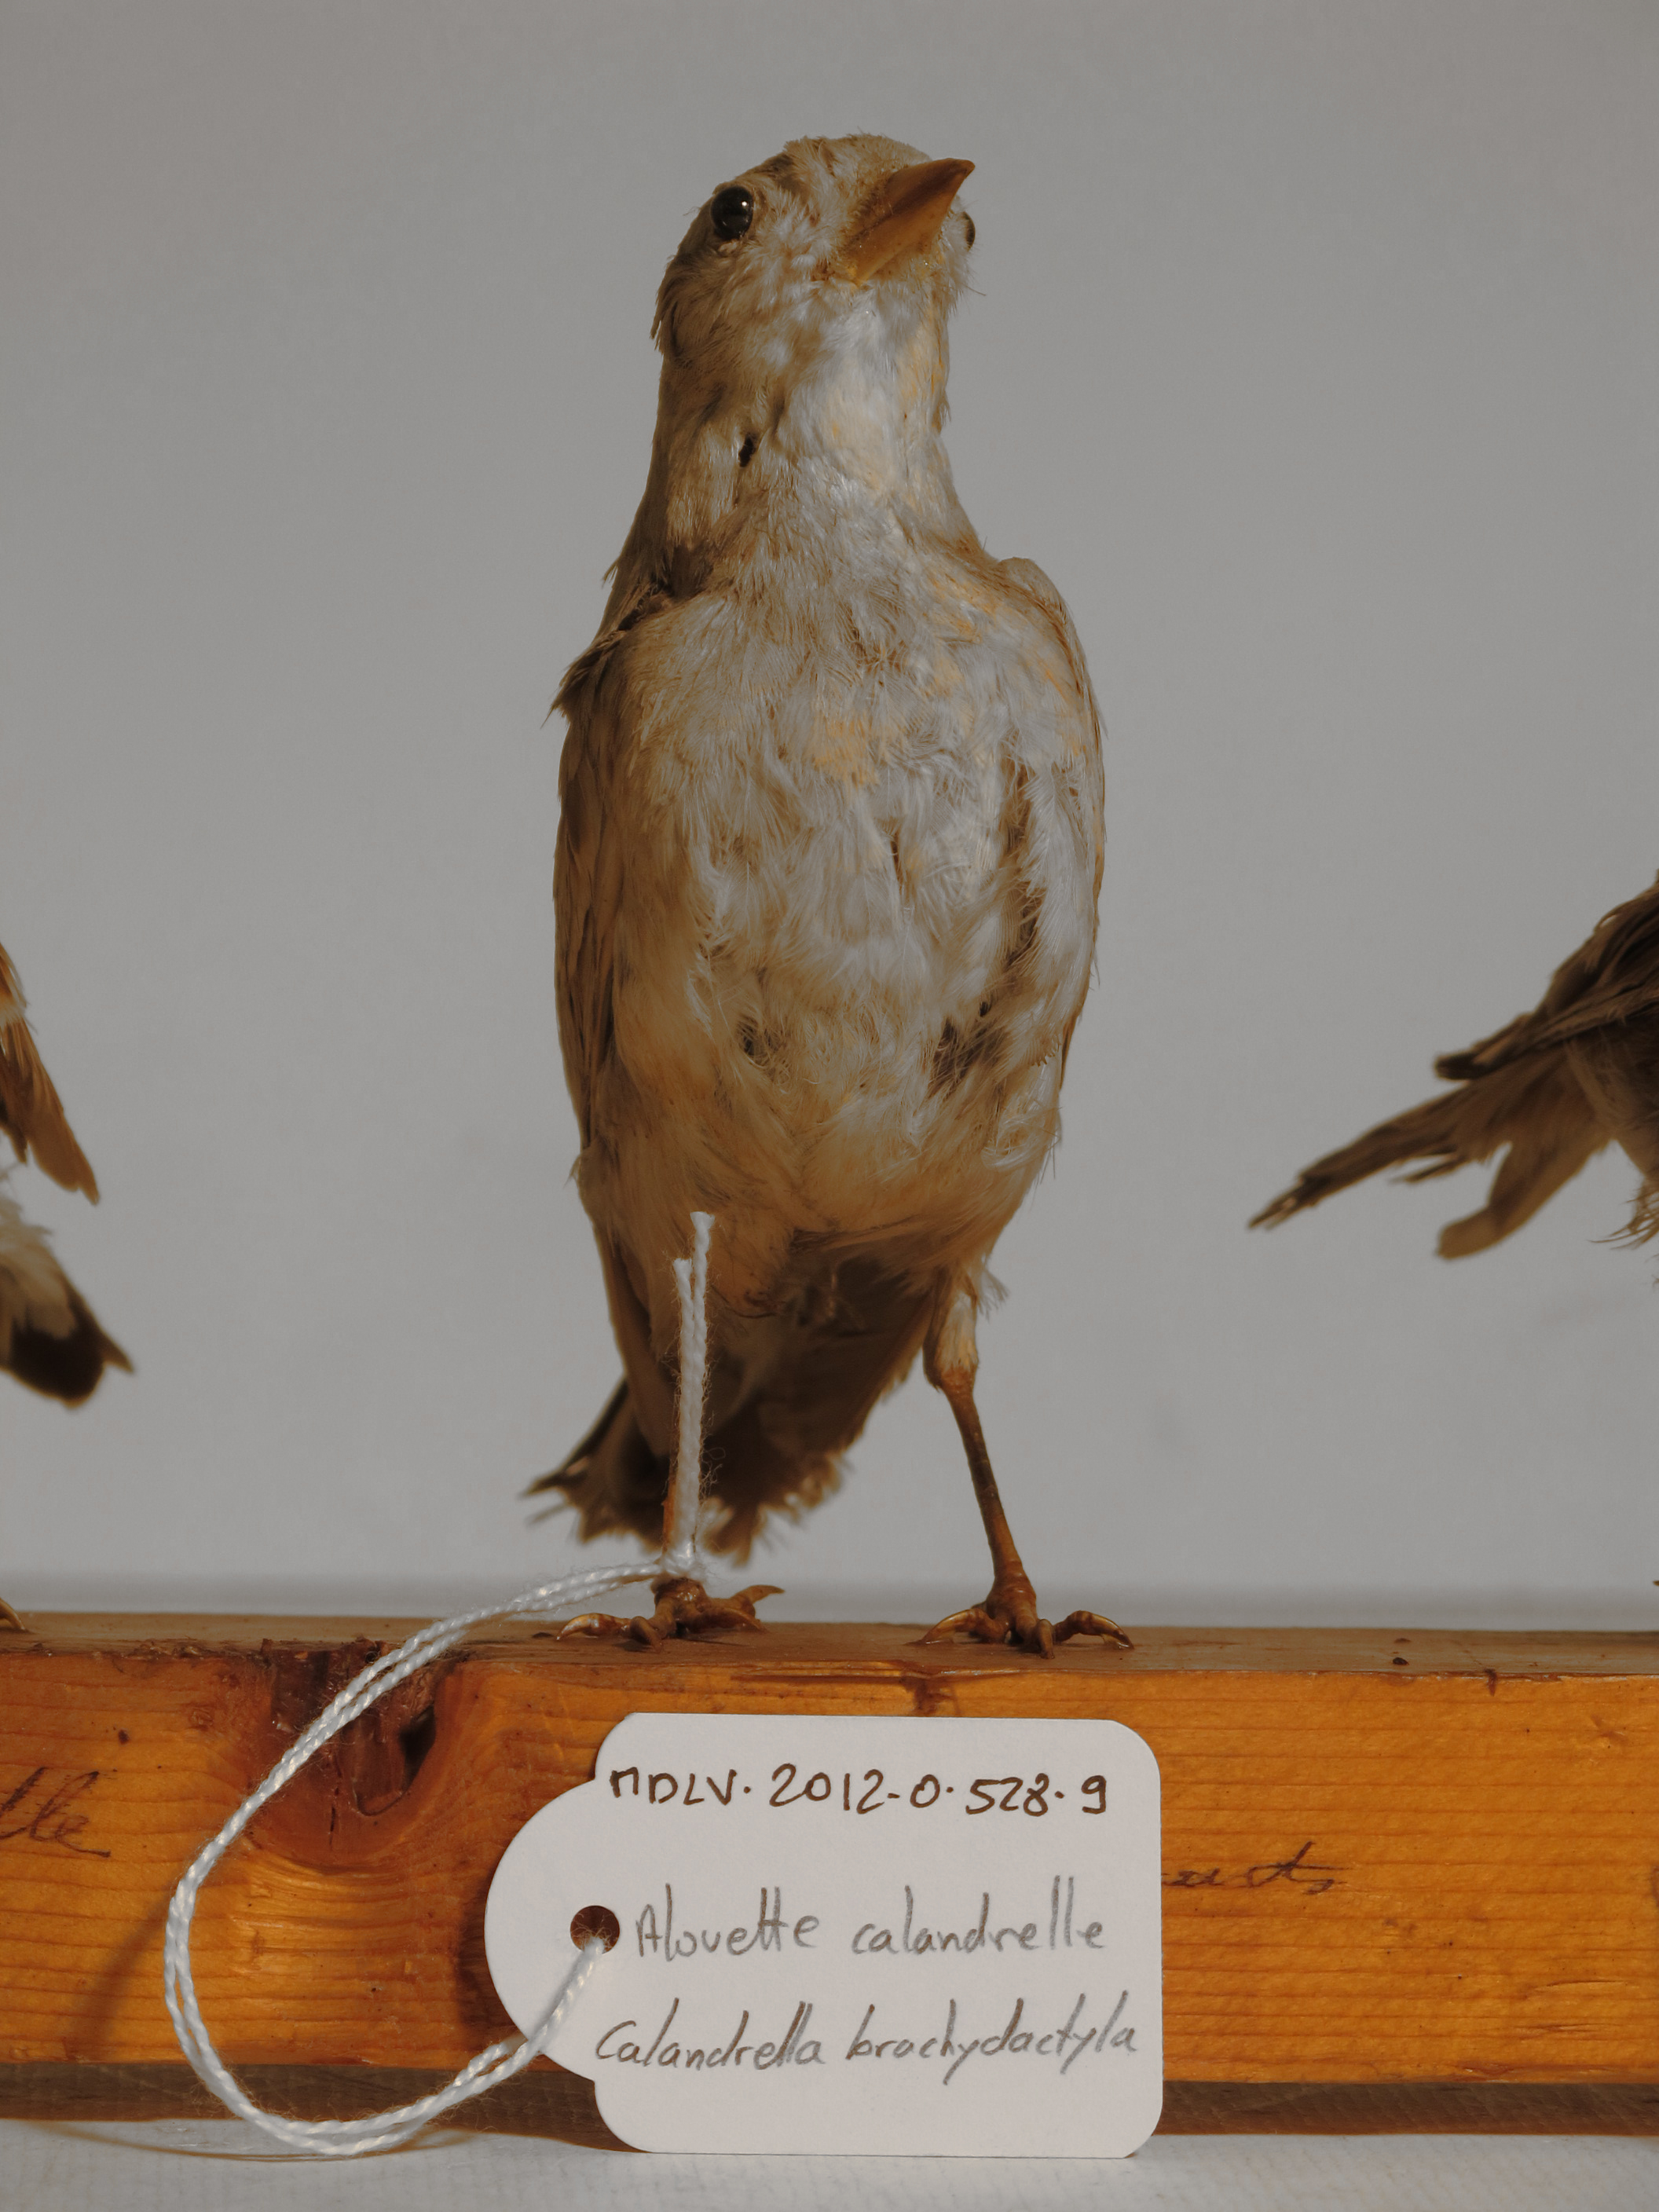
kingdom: Animalia
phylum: Chordata
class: Aves
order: Passeriformes
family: Alaudidae
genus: Calandrella
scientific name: Calandrella brachydactyla
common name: Greater Short-toed Lark
